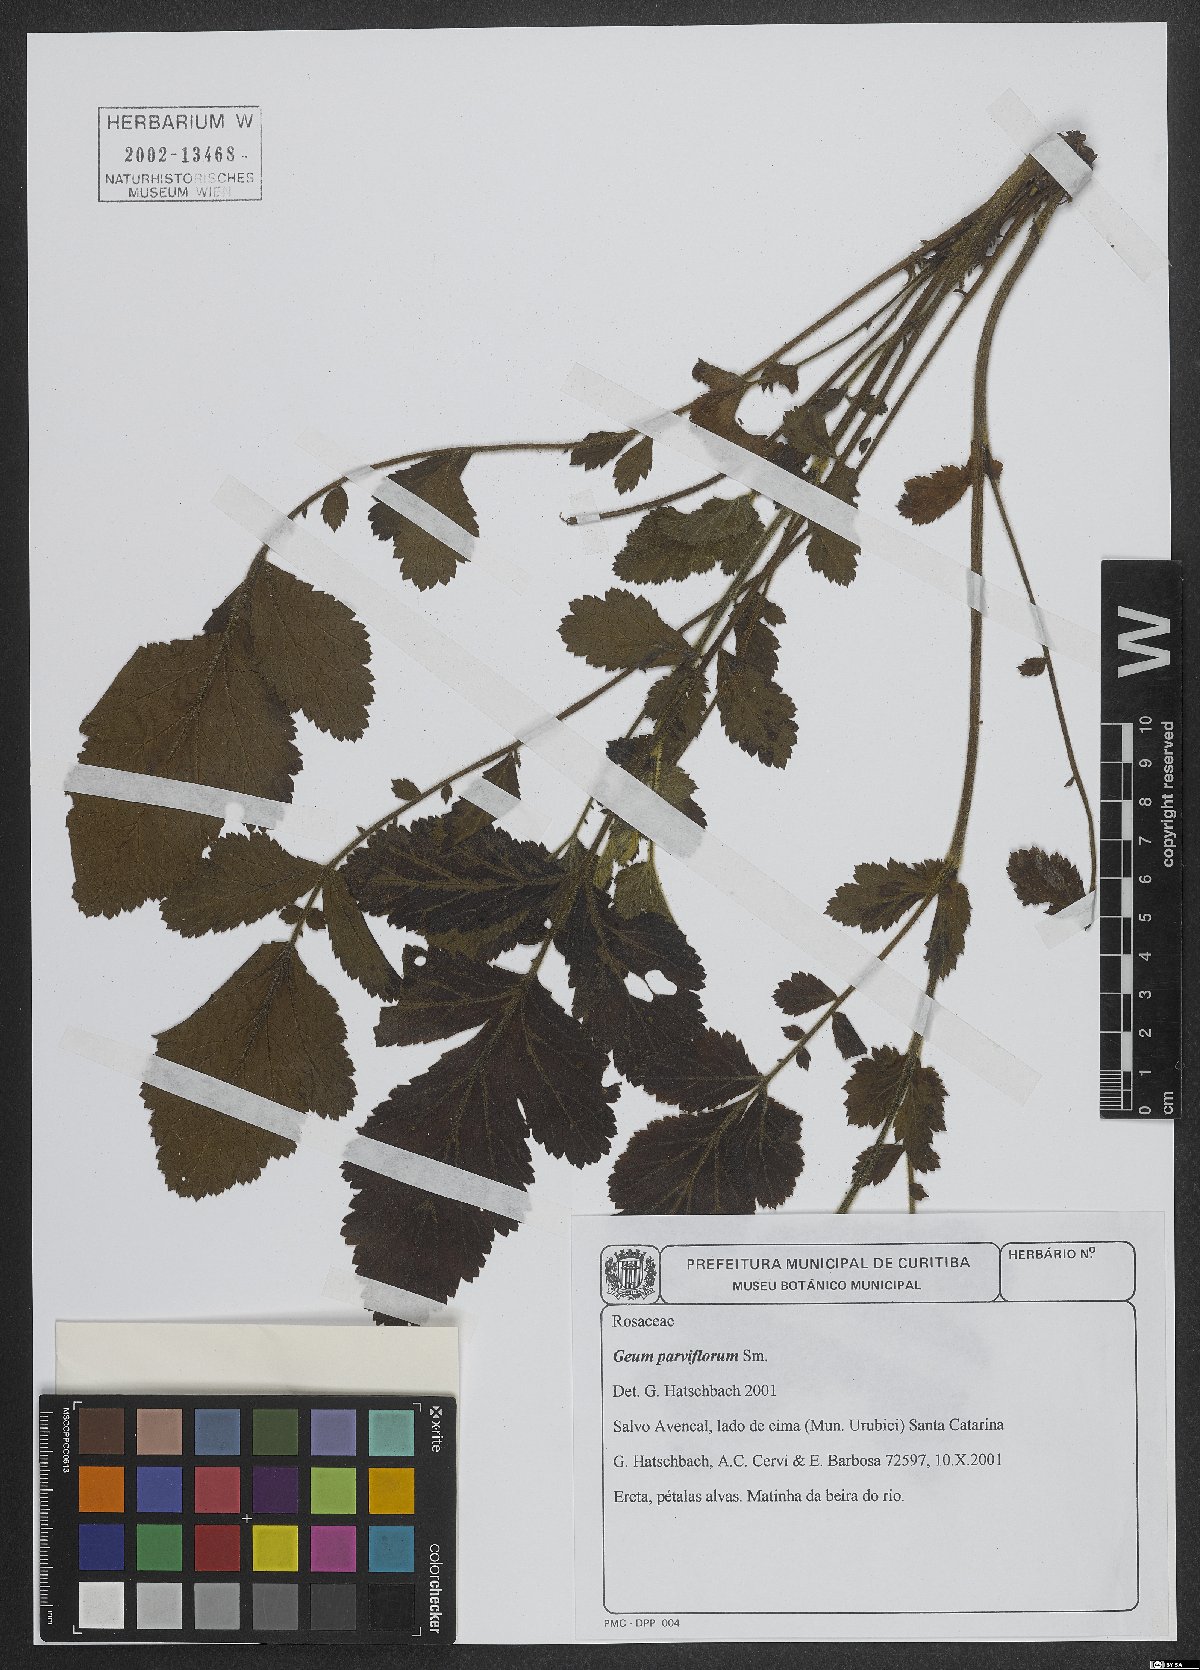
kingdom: Plantae
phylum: Tracheophyta
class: Magnoliopsida
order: Rosales
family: Rosaceae
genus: Geum
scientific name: Geum parviflorum
